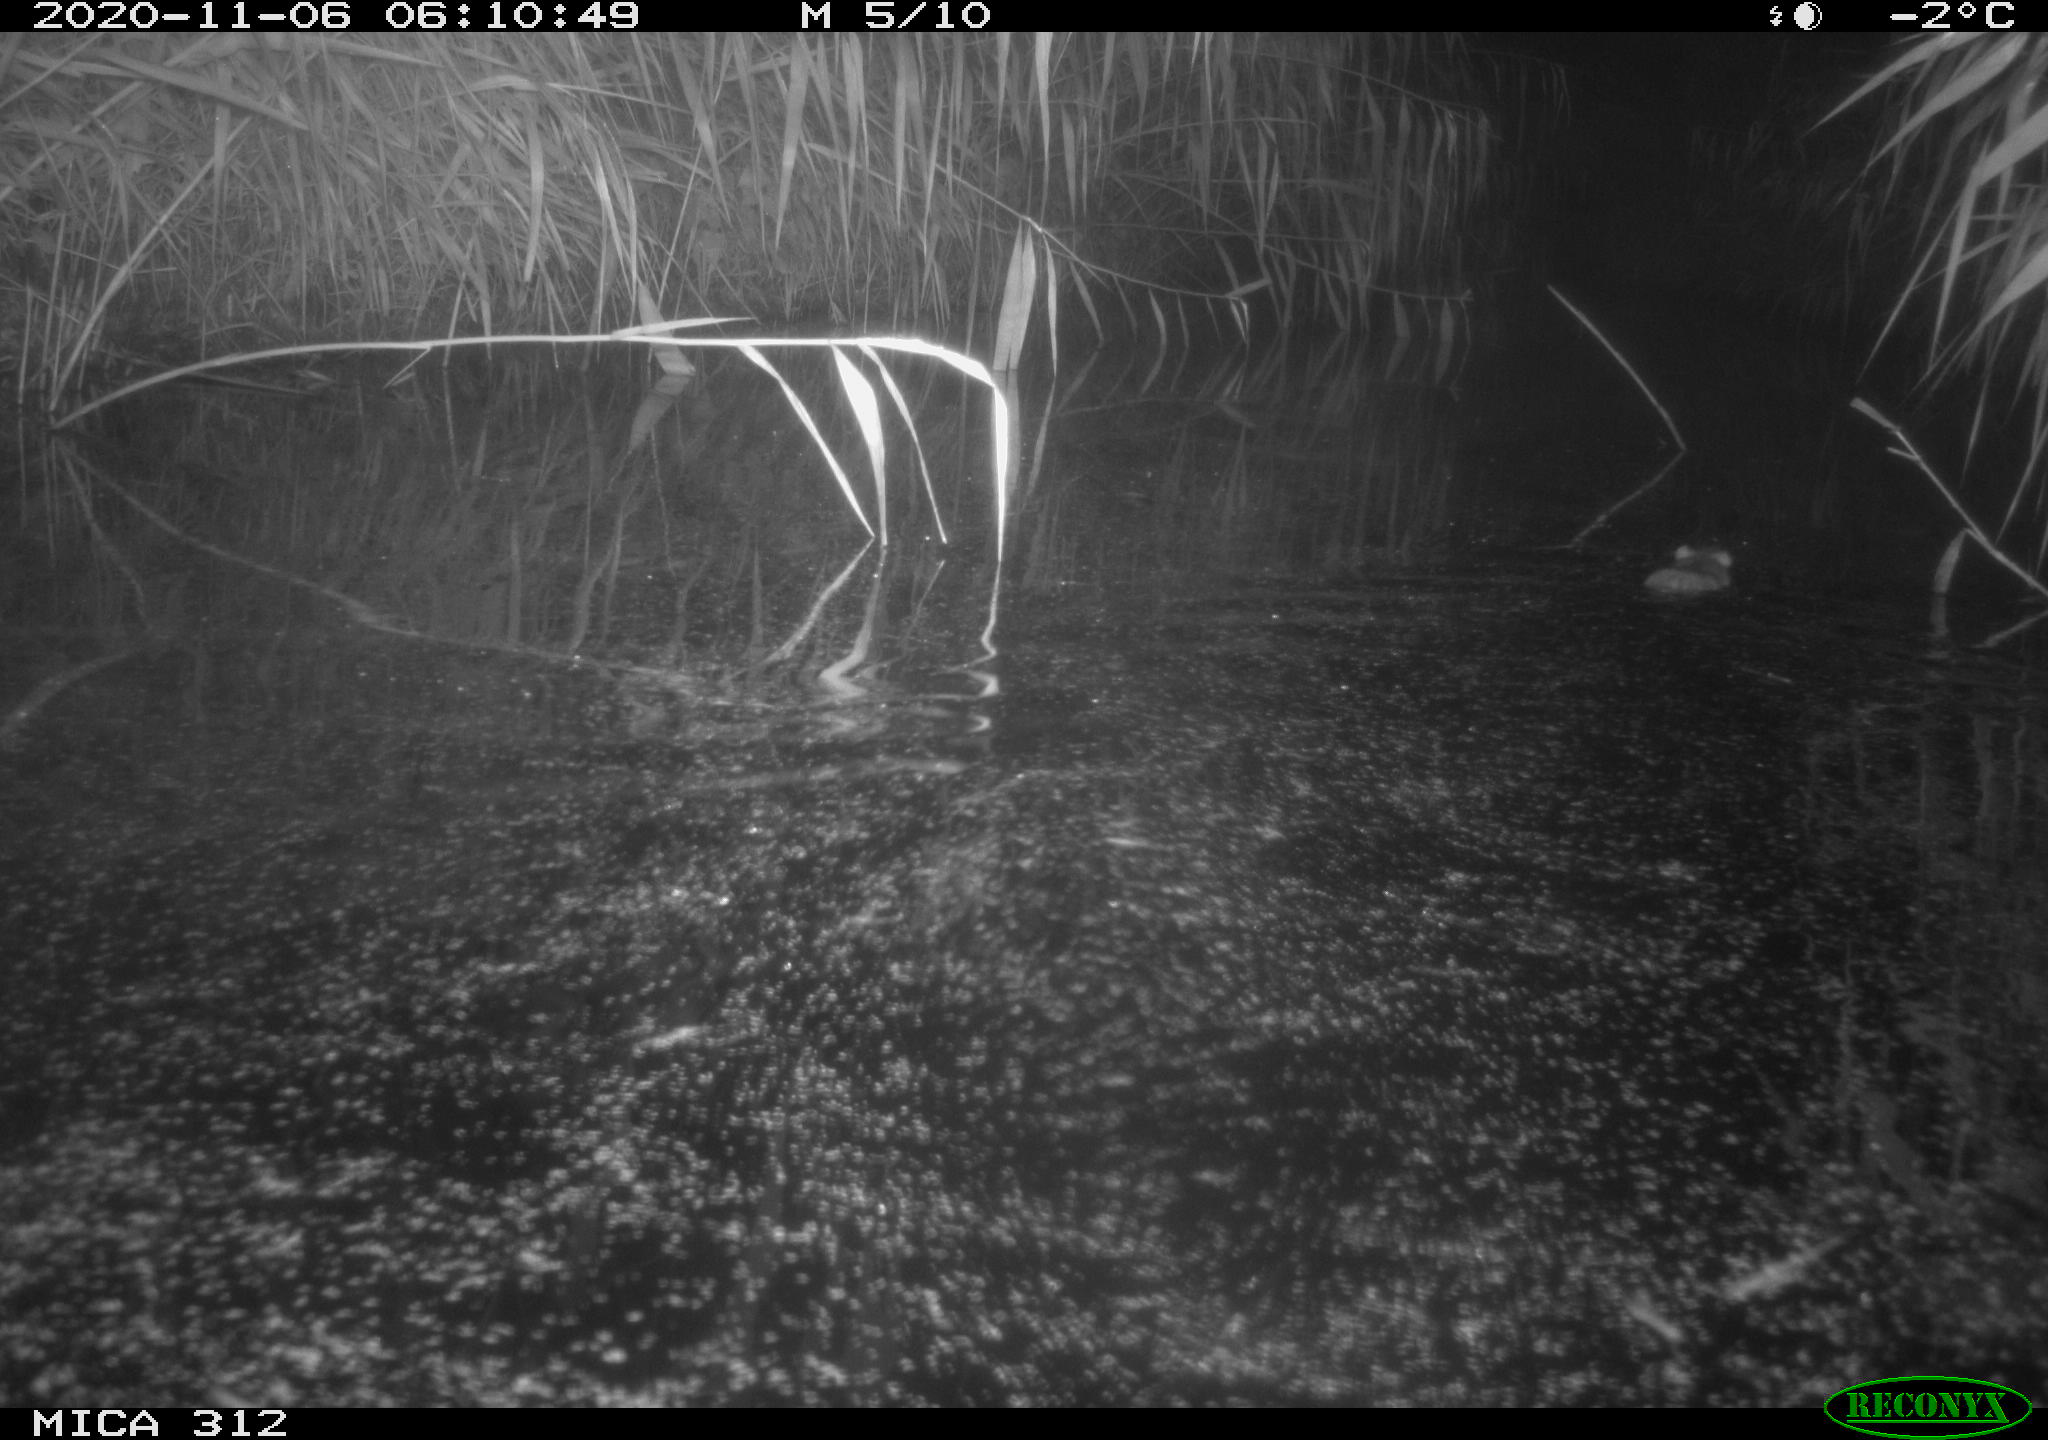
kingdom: Animalia
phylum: Chordata
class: Mammalia
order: Rodentia
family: Muridae
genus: Rattus
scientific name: Rattus norvegicus
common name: Brown rat
